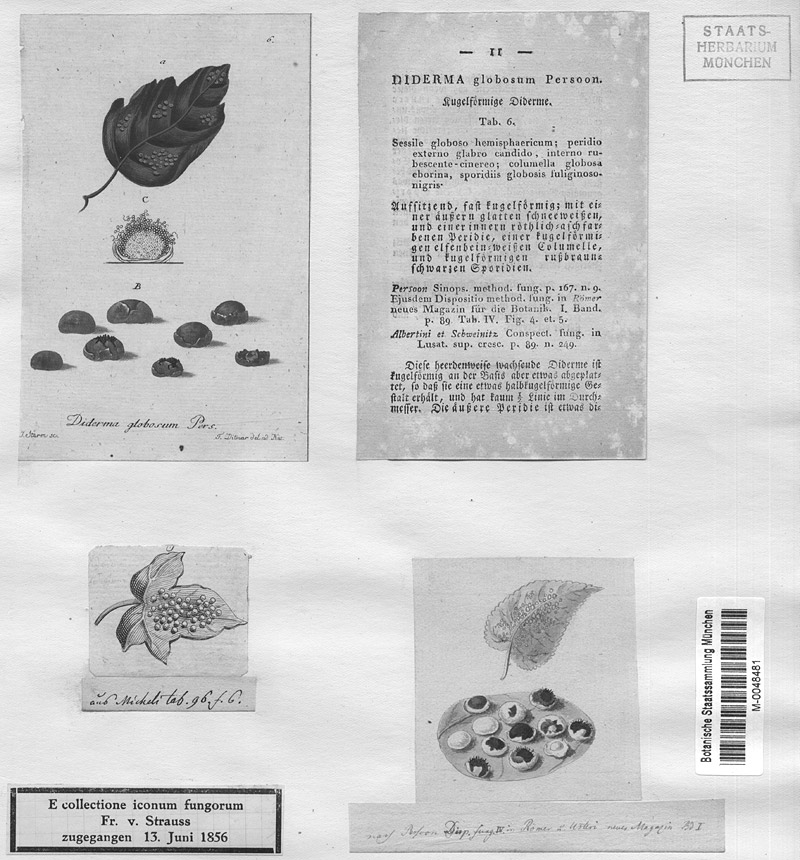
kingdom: Protozoa
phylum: Mycetozoa
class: Myxomycetes
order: Physarales
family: Didymiaceae
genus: Diderma
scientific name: Diderma globosum
